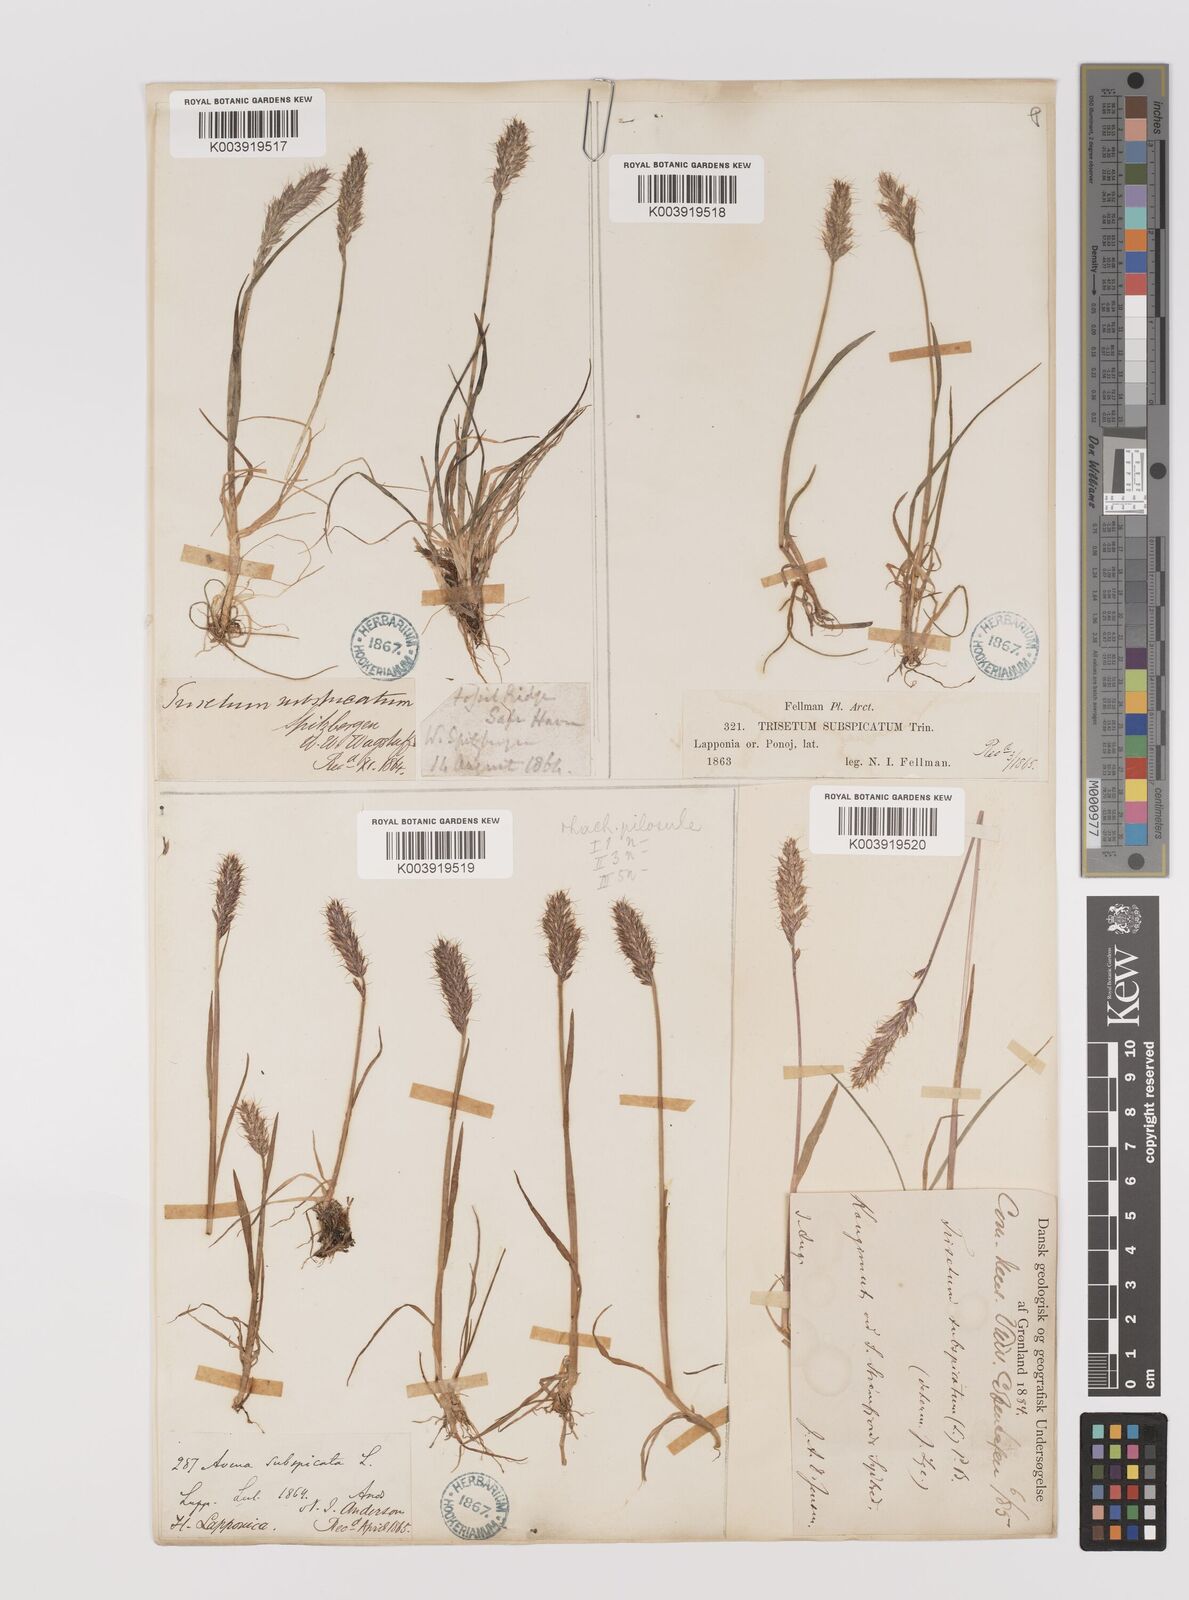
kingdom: Plantae
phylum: Tracheophyta
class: Liliopsida
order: Poales
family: Poaceae
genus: Koeleria
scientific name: Koeleria spicata
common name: Mountain trisetum
